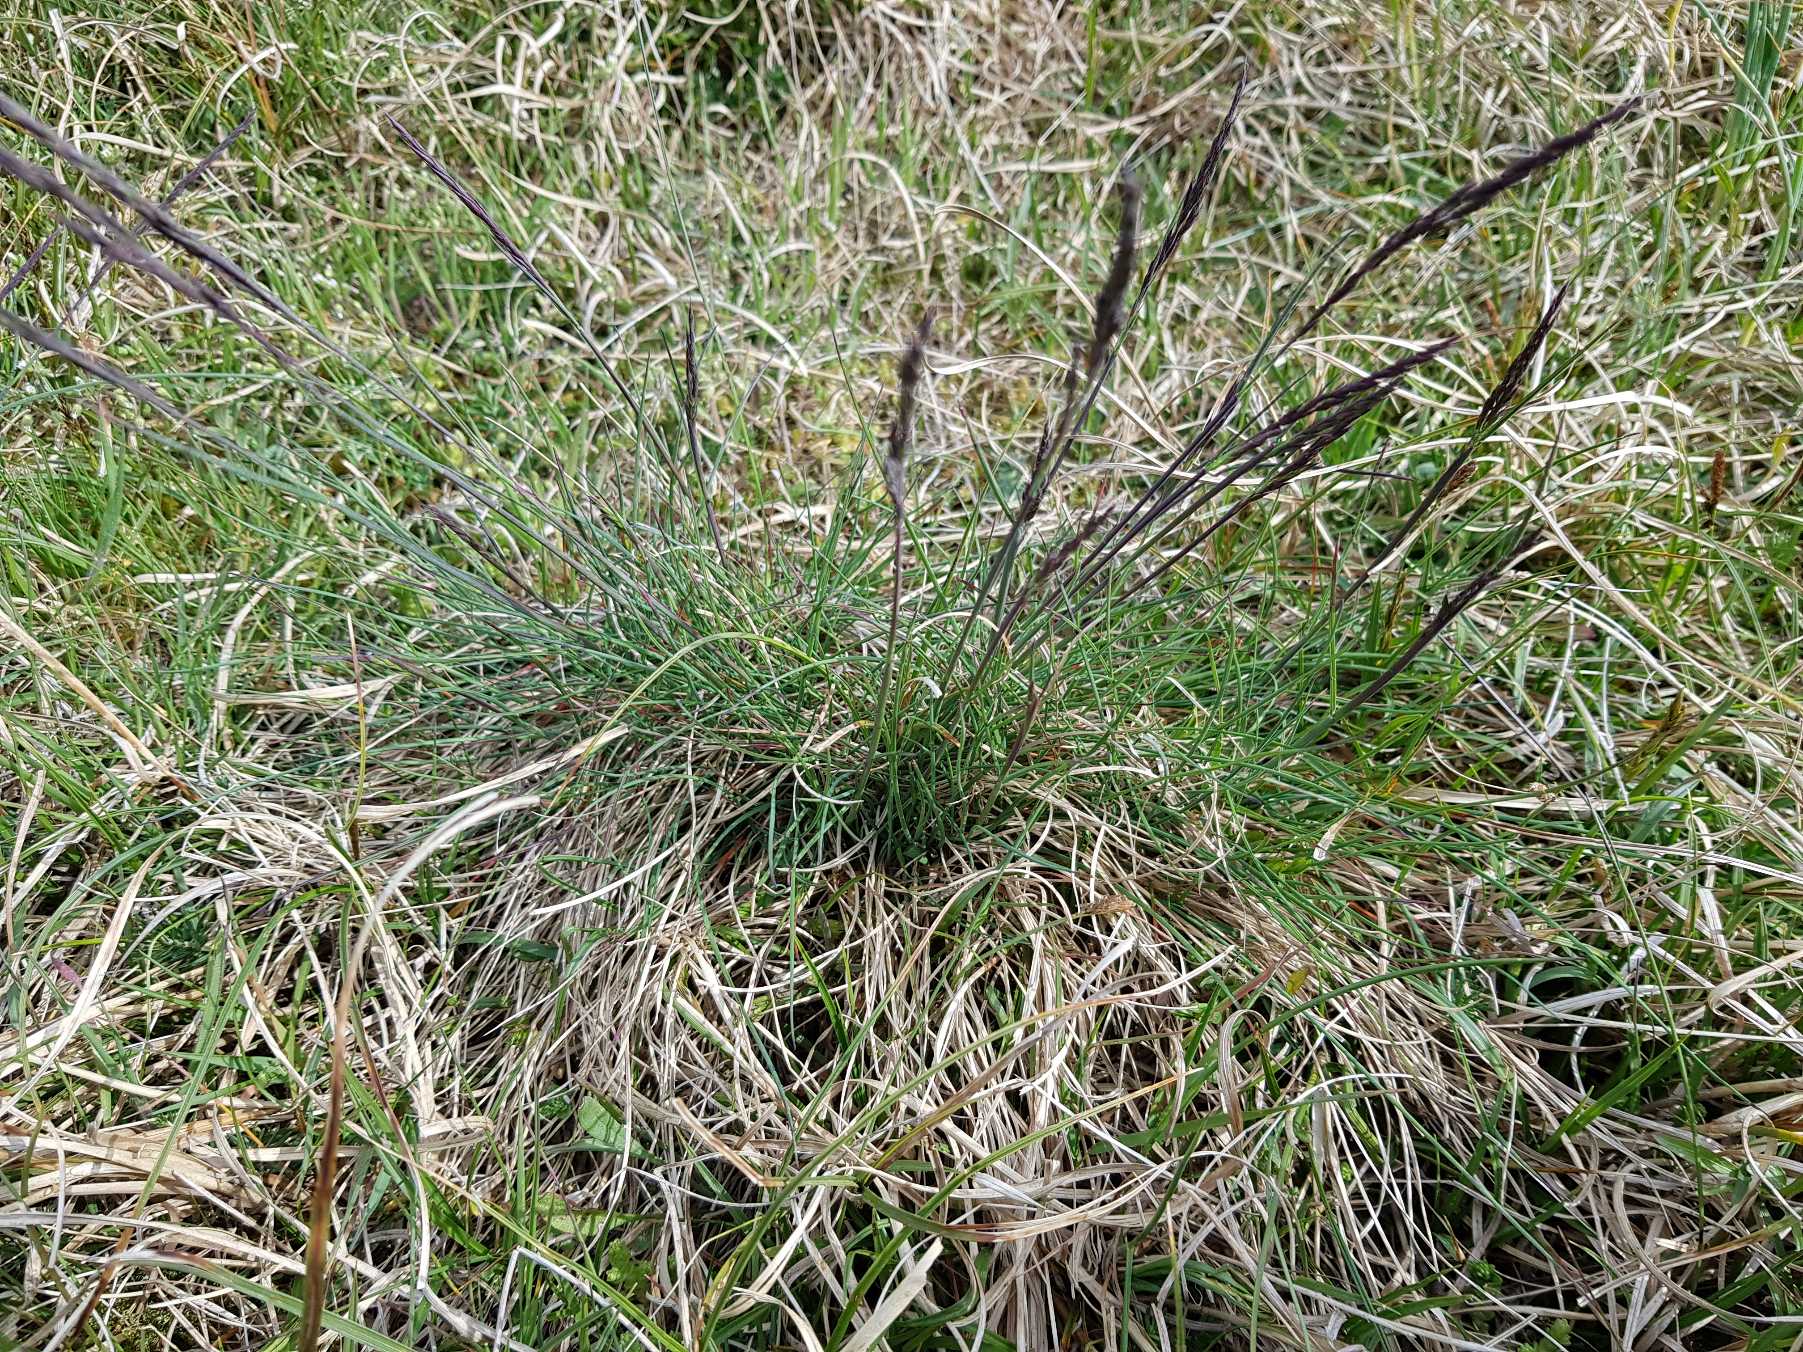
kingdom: Plantae
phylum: Tracheophyta
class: Liliopsida
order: Poales
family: Poaceae
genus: Festuca
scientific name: Festuca trachyphylla
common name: Bakke-svingel
